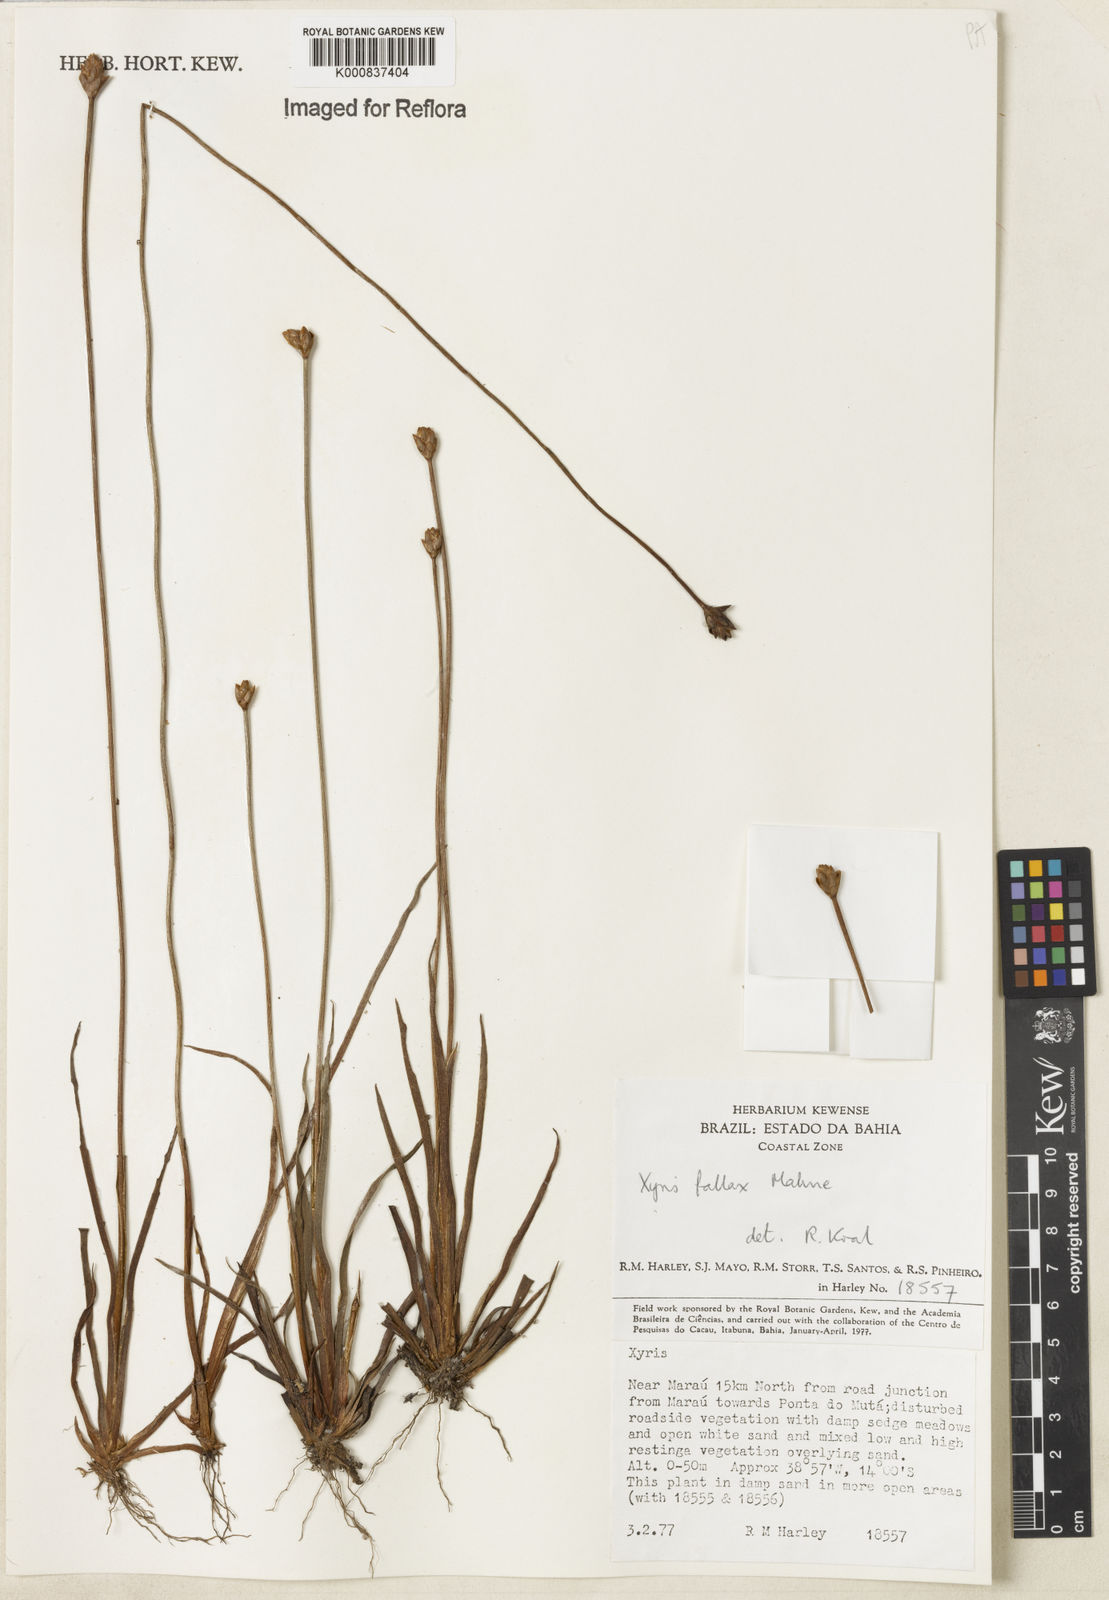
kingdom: Plantae
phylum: Tracheophyta
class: Liliopsida
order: Poales
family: Xyridaceae
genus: Xyris
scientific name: Xyris fallax
